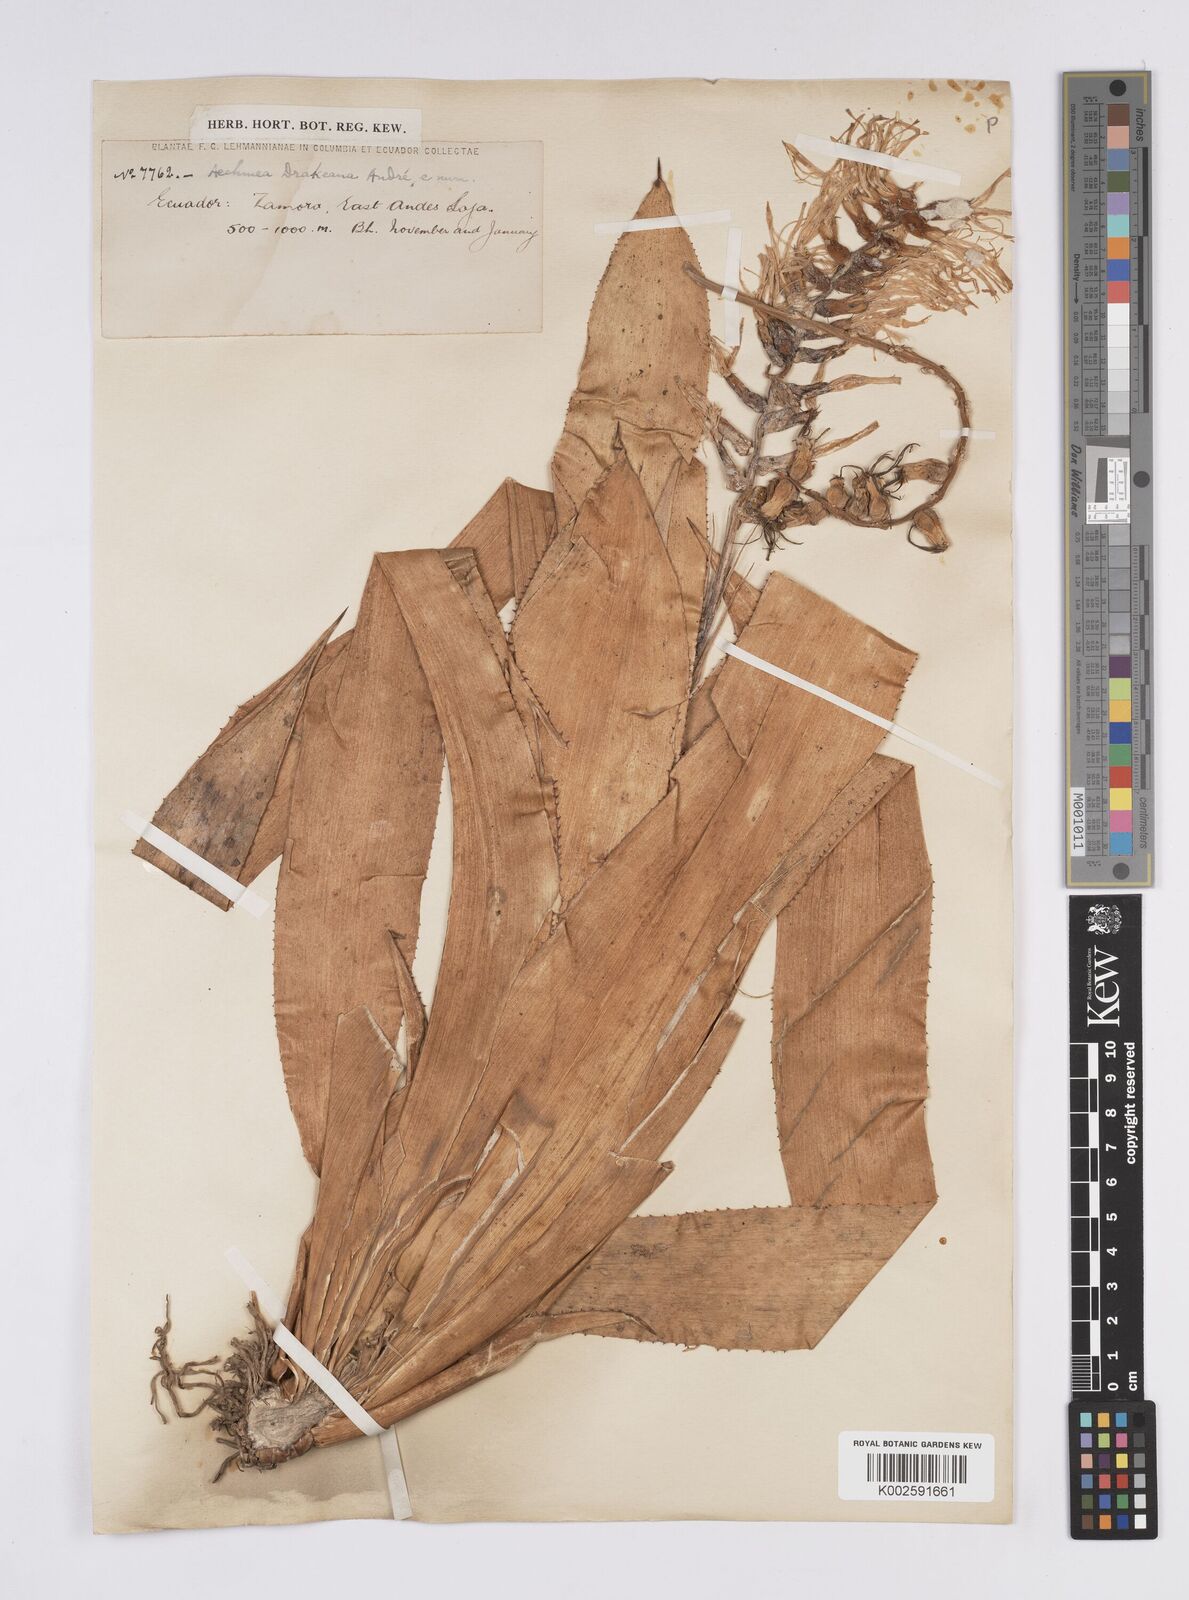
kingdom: Plantae
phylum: Tracheophyta
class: Liliopsida
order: Poales
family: Bromeliaceae
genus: Ronnbergia
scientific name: Ronnbergia drakeana
